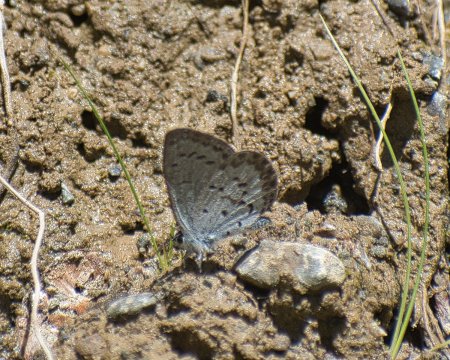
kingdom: Animalia
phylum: Arthropoda
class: Insecta
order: Lepidoptera
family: Lycaenidae
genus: Celastrina
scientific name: Celastrina
